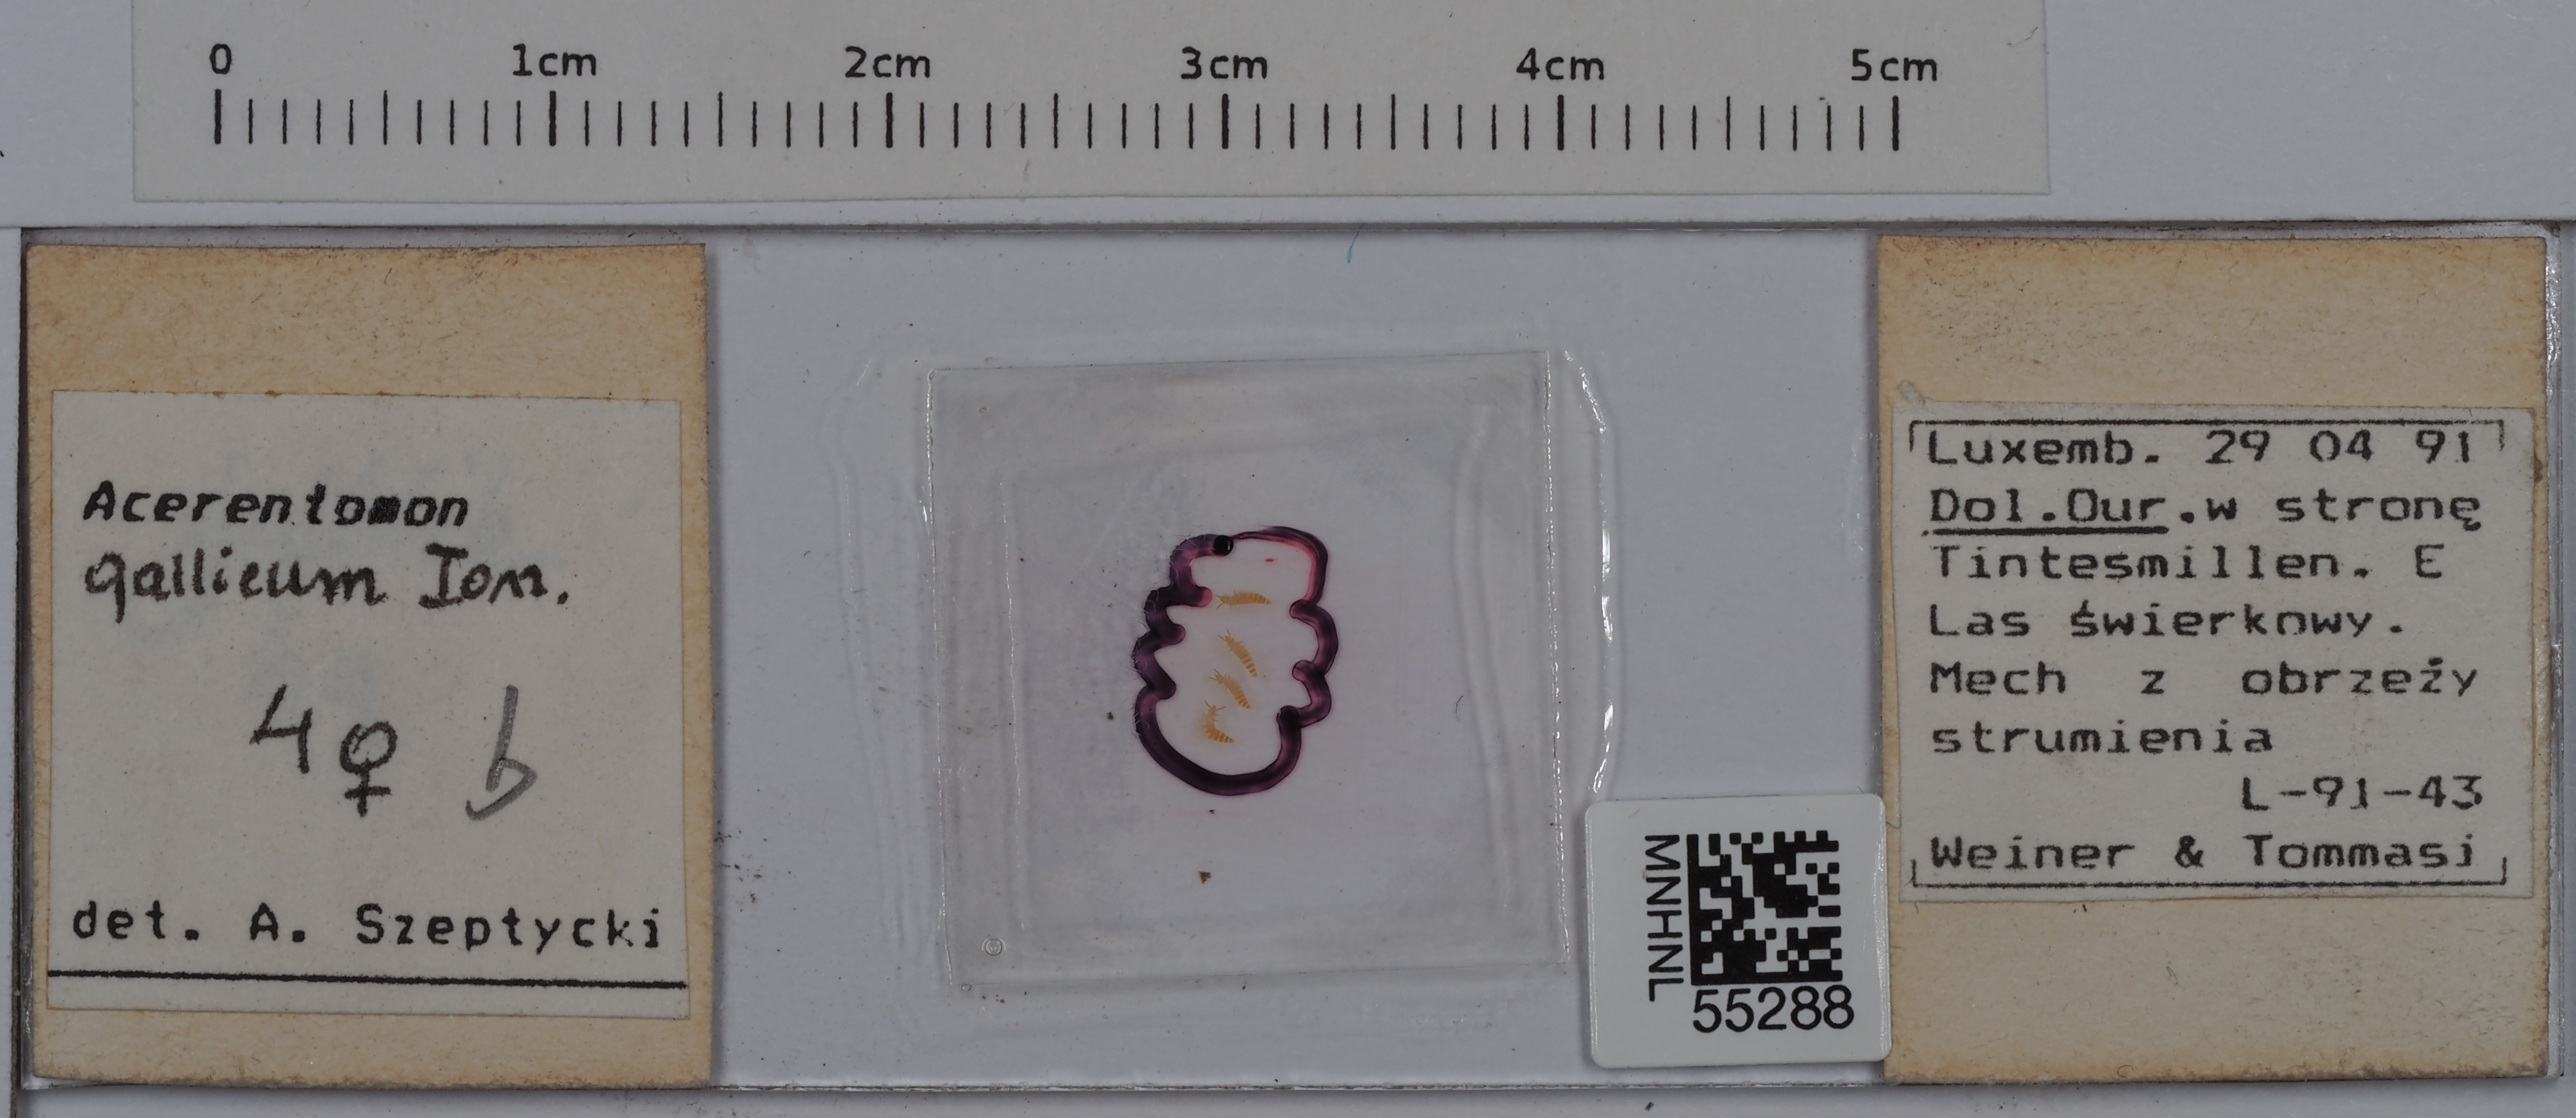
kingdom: Animalia
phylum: Arthropoda
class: Protura
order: Protura
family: Acerentomidae
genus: Acerentomon
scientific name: Acerentomon gallicum
